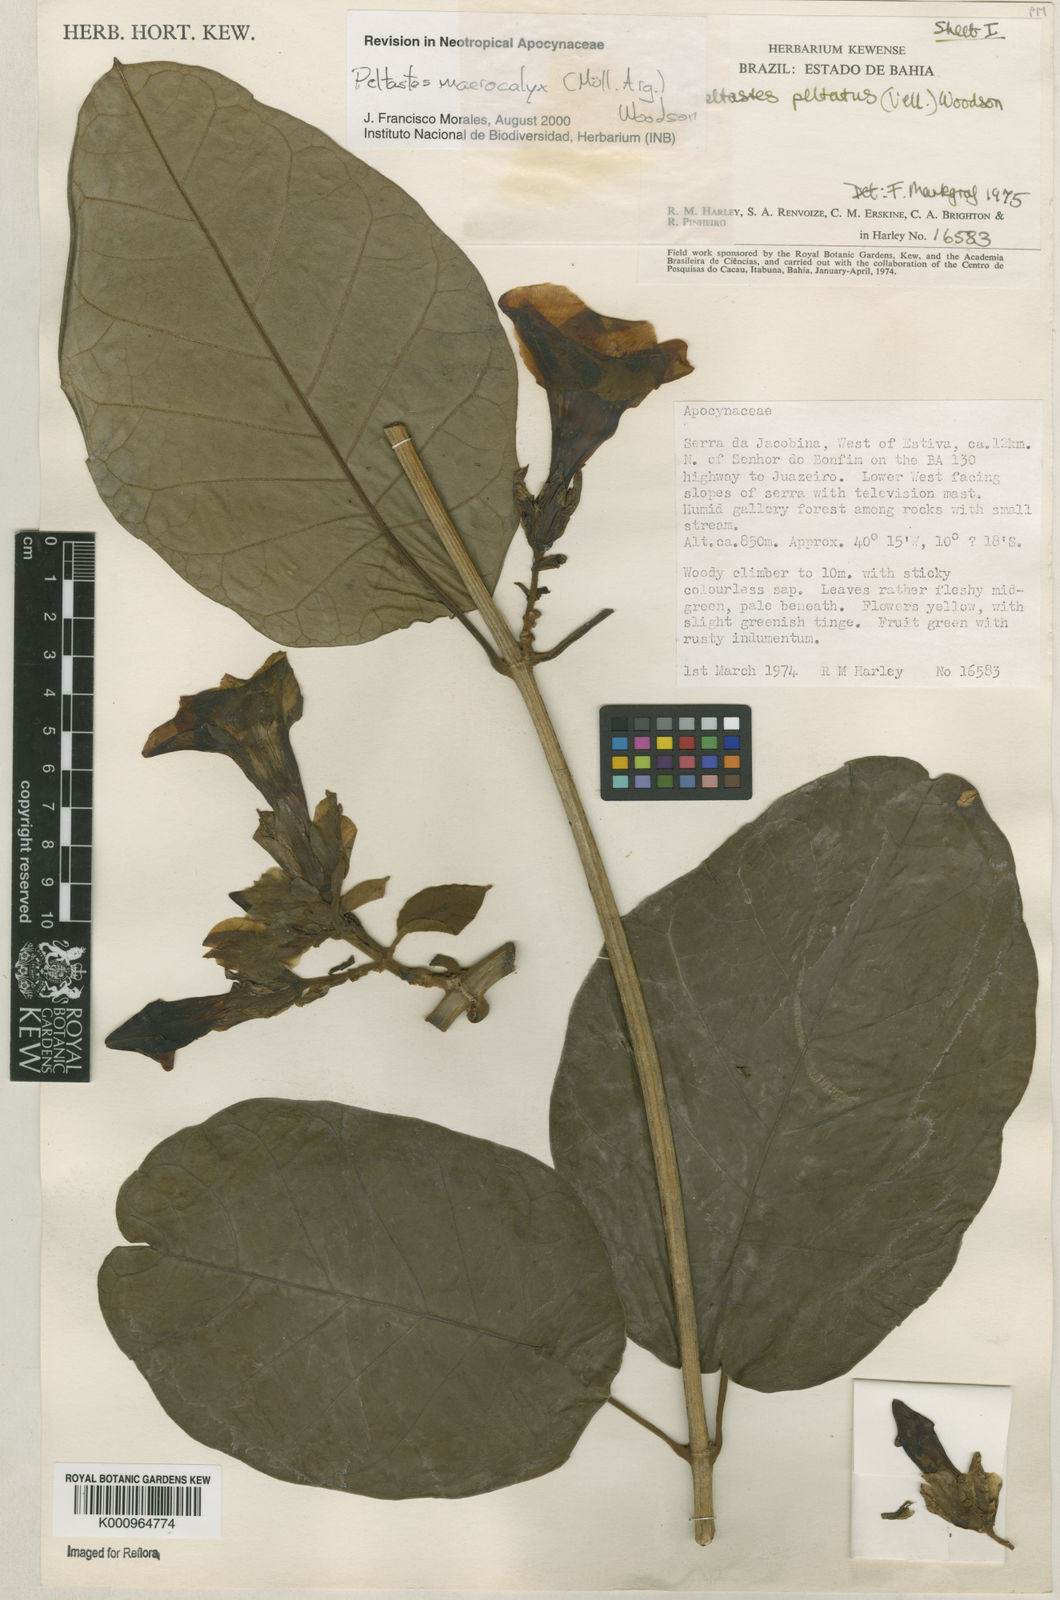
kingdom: Plantae
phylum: Tracheophyta
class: Magnoliopsida
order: Gentianales
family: Apocynaceae
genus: Macropharynx
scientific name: Macropharynx
